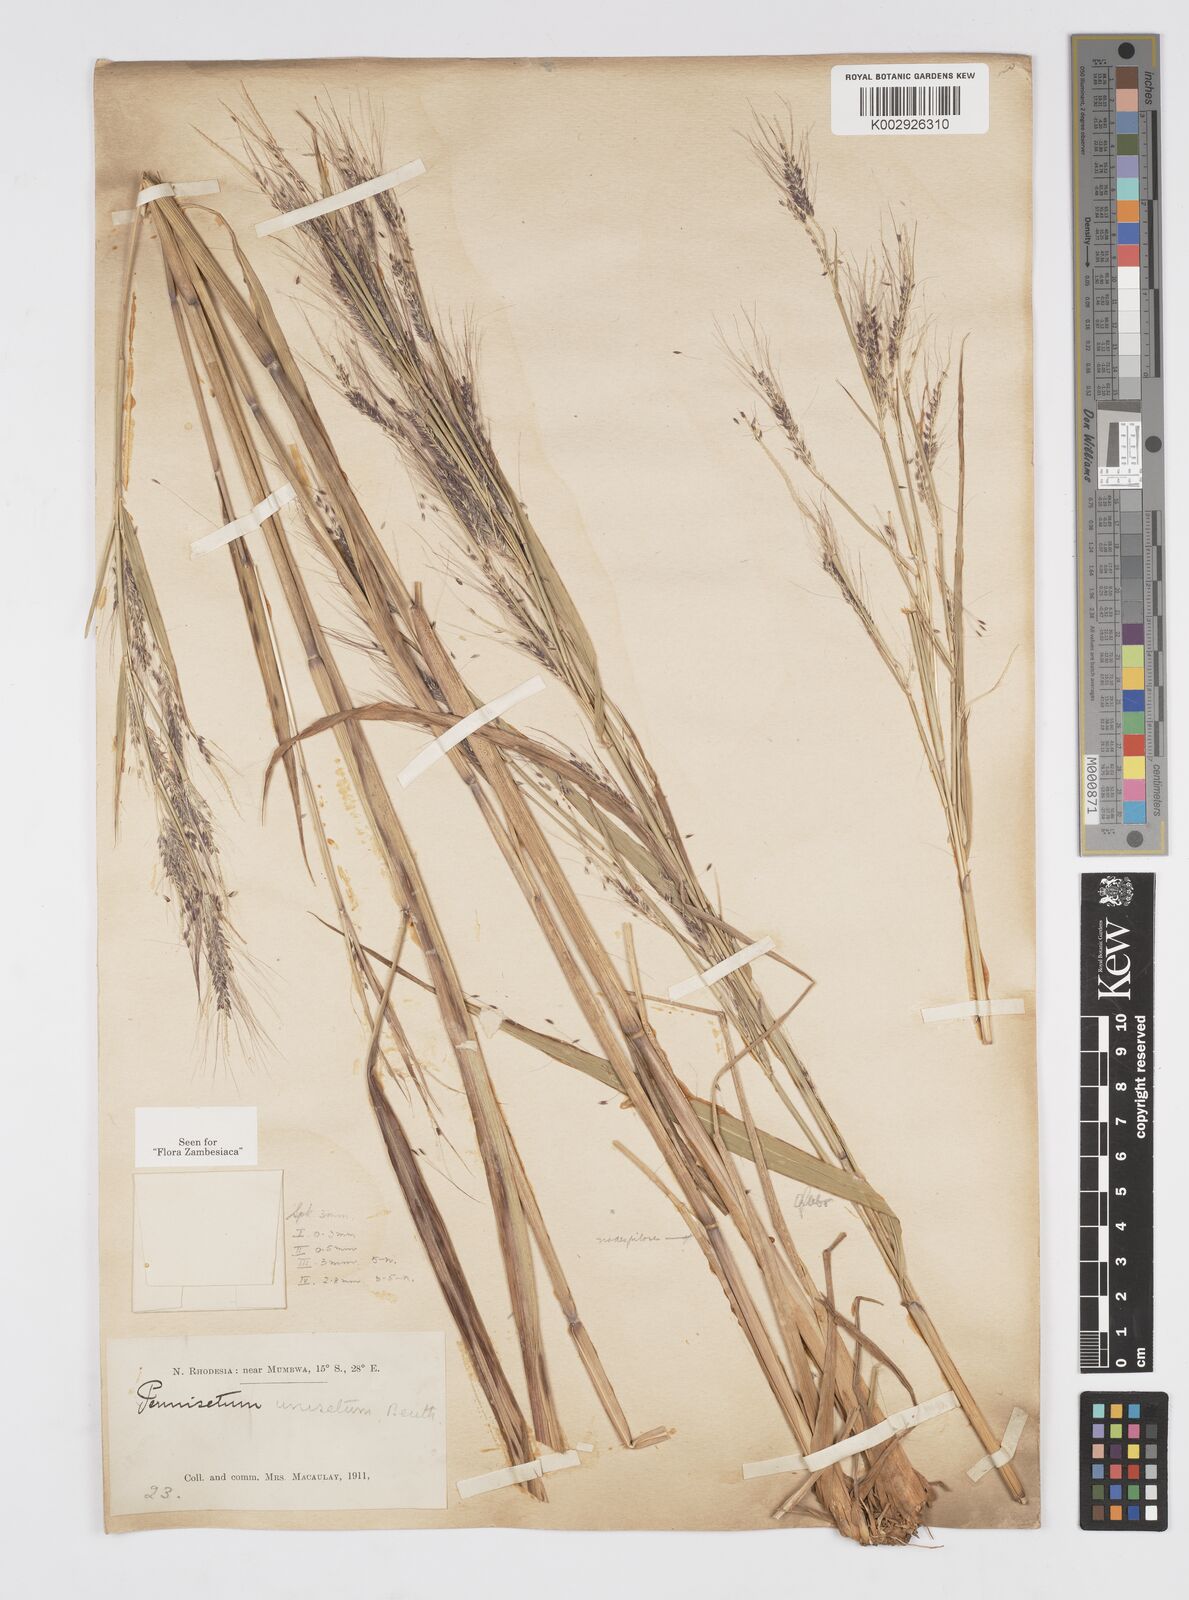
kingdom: Plantae
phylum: Tracheophyta
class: Liliopsida
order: Poales
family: Poaceae
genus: Cenchrus
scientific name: Cenchrus unisetus
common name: Natal grass
